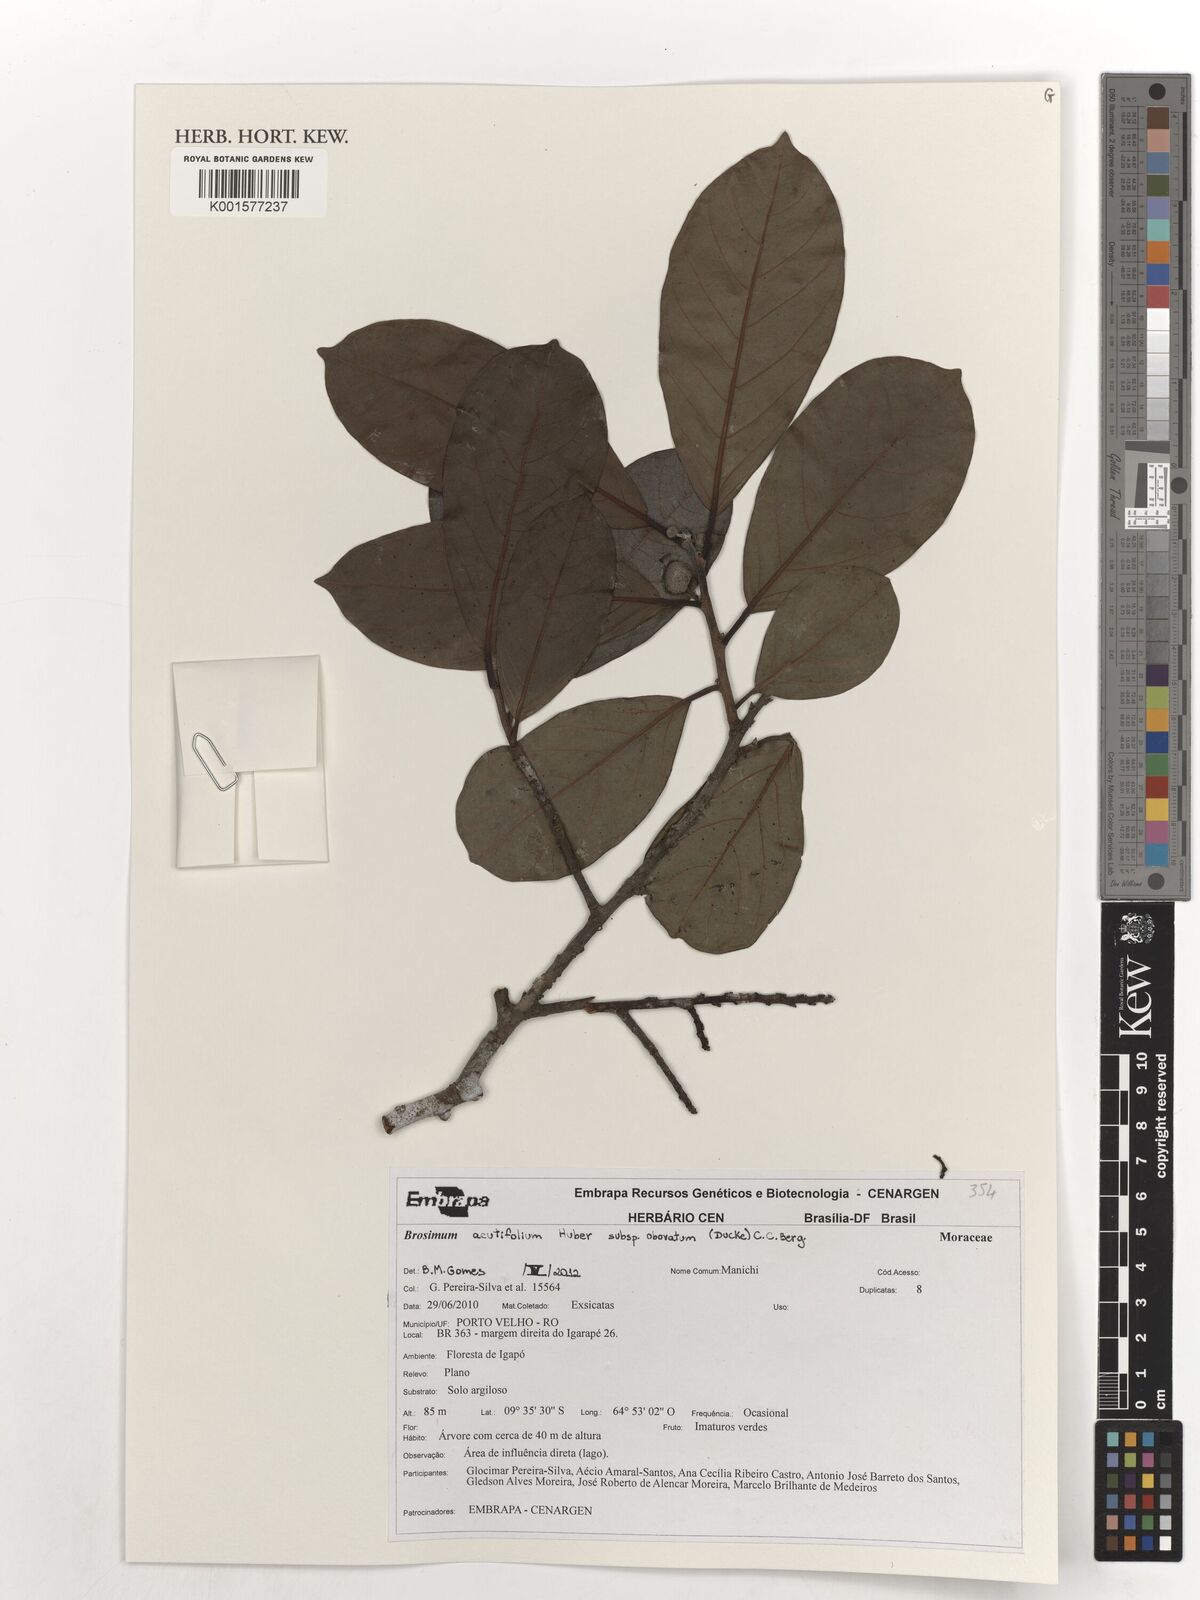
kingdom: Plantae
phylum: Tracheophyta
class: Magnoliopsida
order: Rosales
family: Moraceae
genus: Brosimum
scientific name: Brosimum acutifolium
